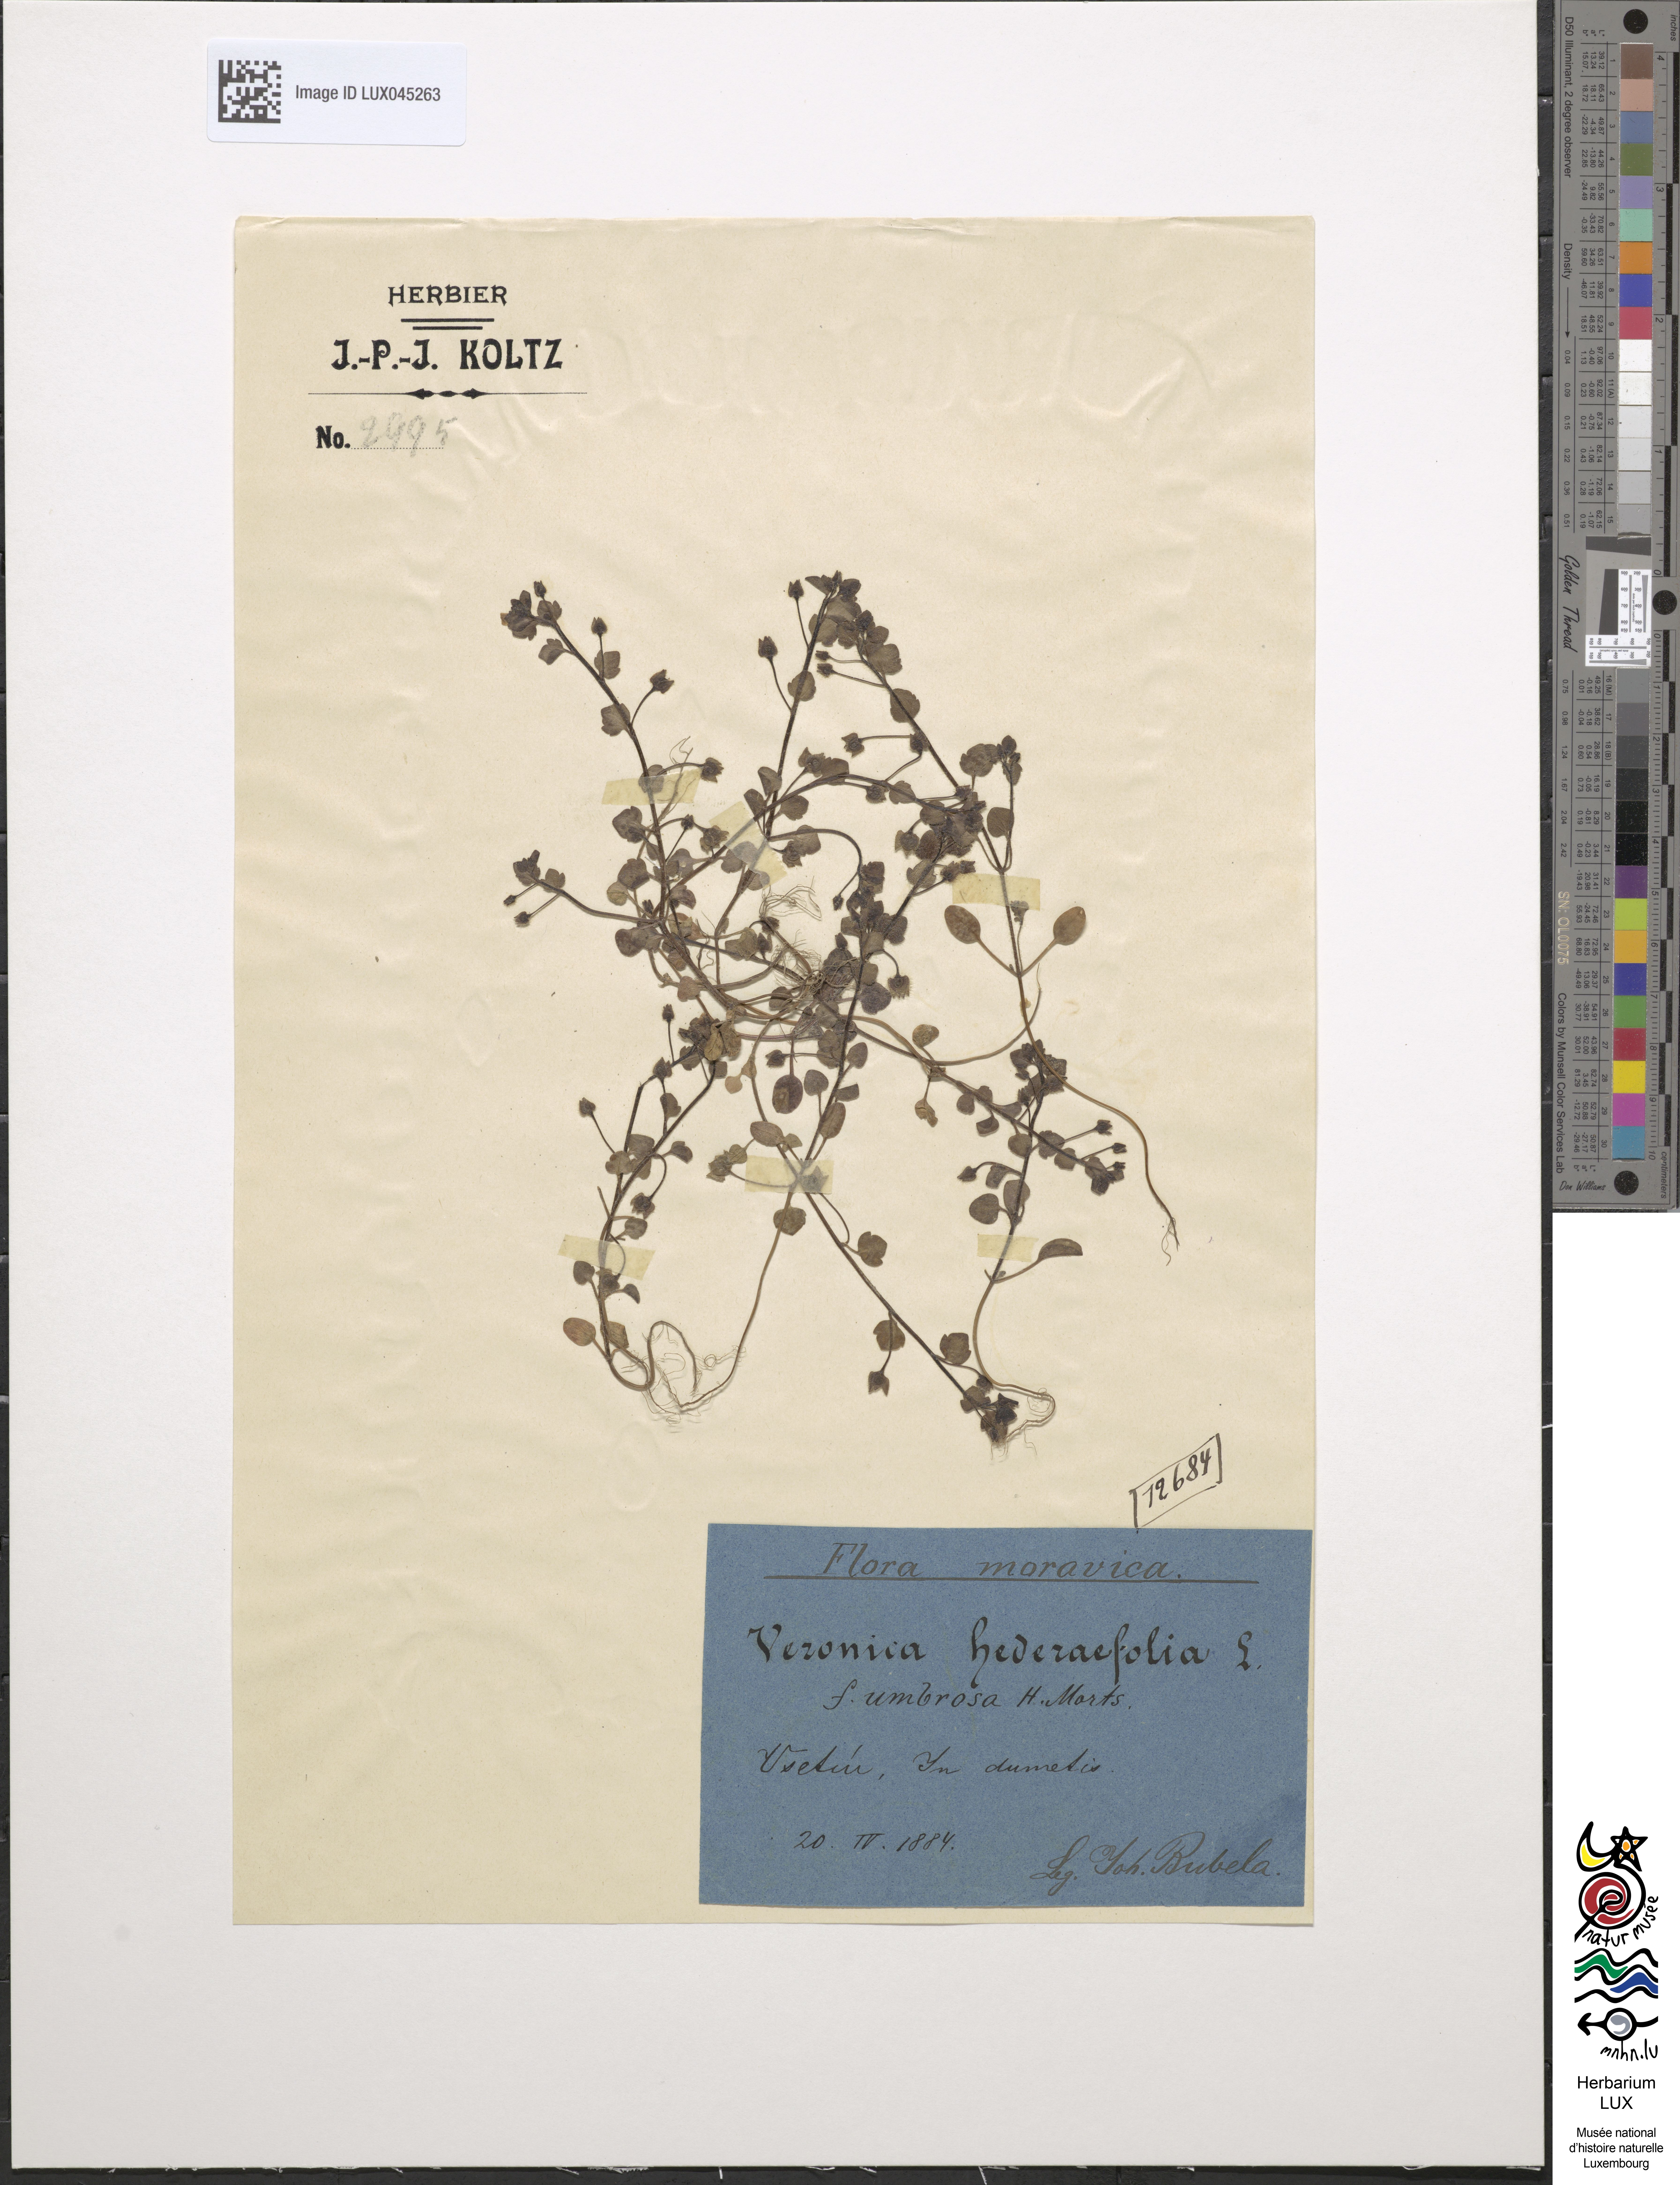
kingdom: Plantae
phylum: Tracheophyta
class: Magnoliopsida
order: Lamiales
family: Plantaginaceae
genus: Veronica
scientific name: Veronica hederifolia
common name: Ivy-leaved speedwell
